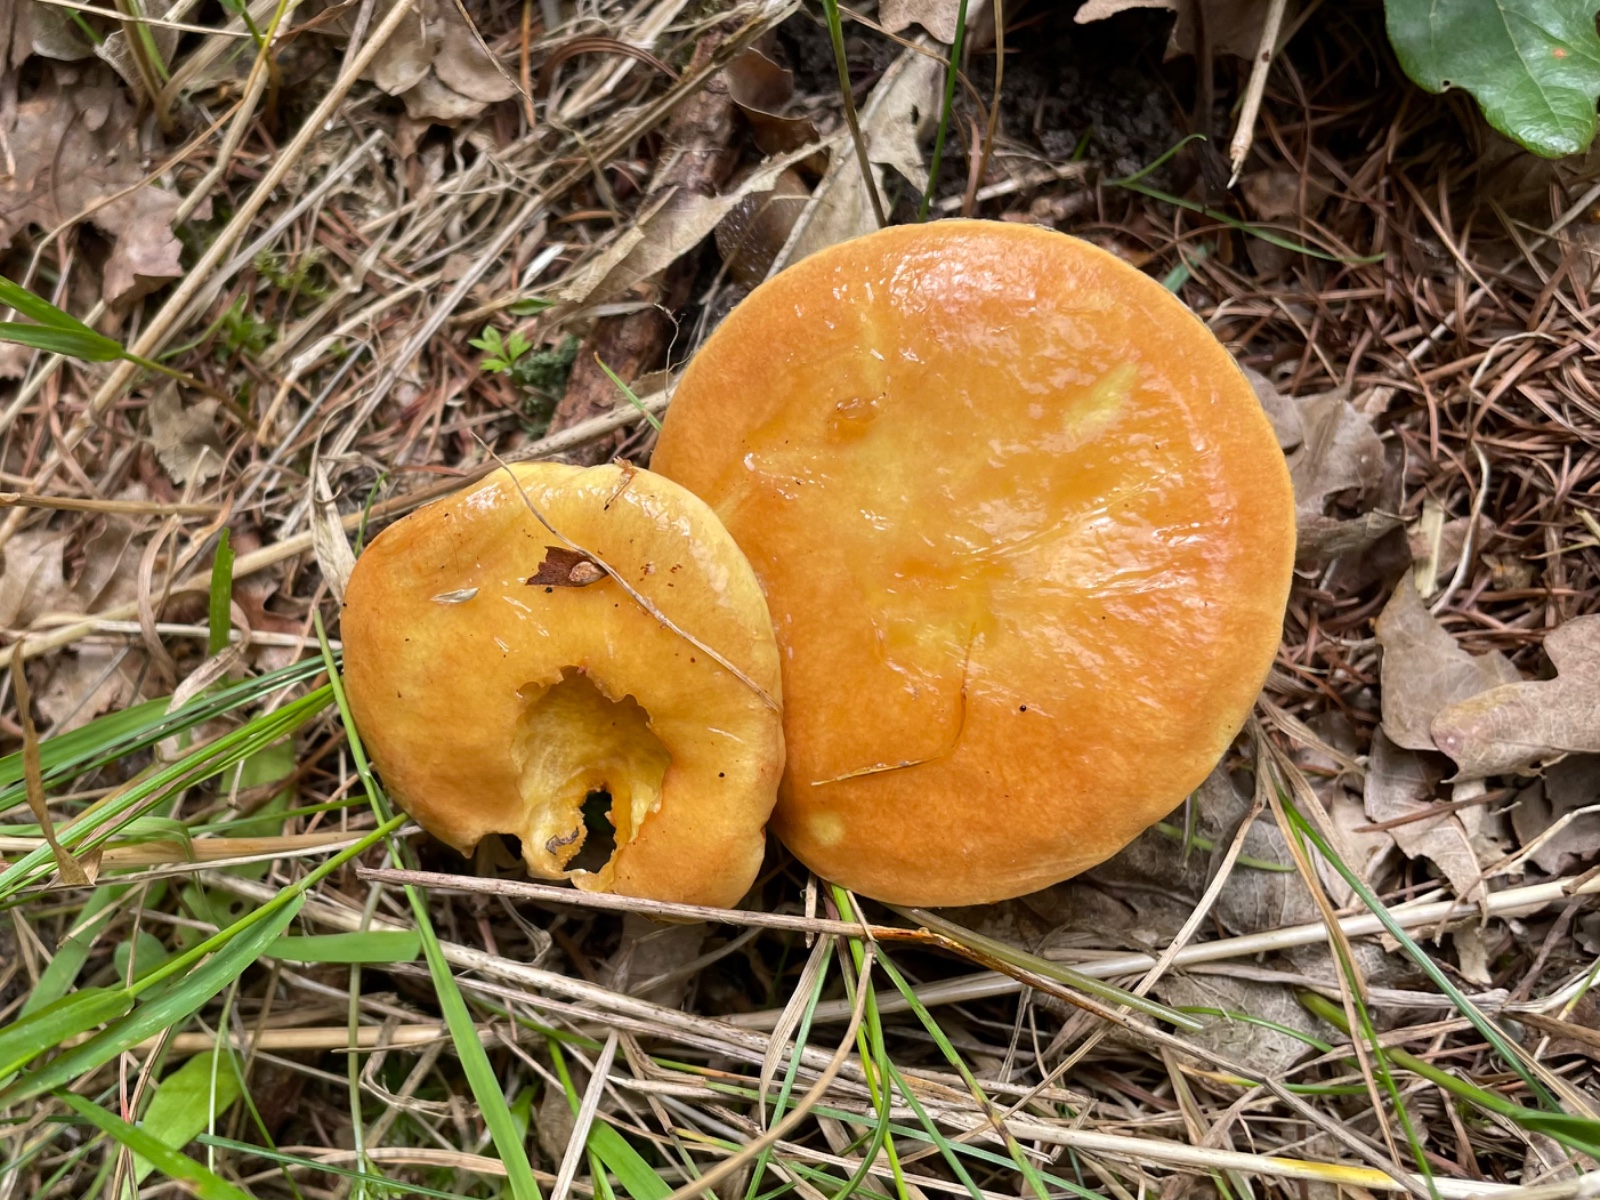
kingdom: Fungi
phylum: Basidiomycota
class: Agaricomycetes
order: Boletales
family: Suillaceae
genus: Suillus
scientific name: Suillus grevillei
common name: lærke-slimrørhat
